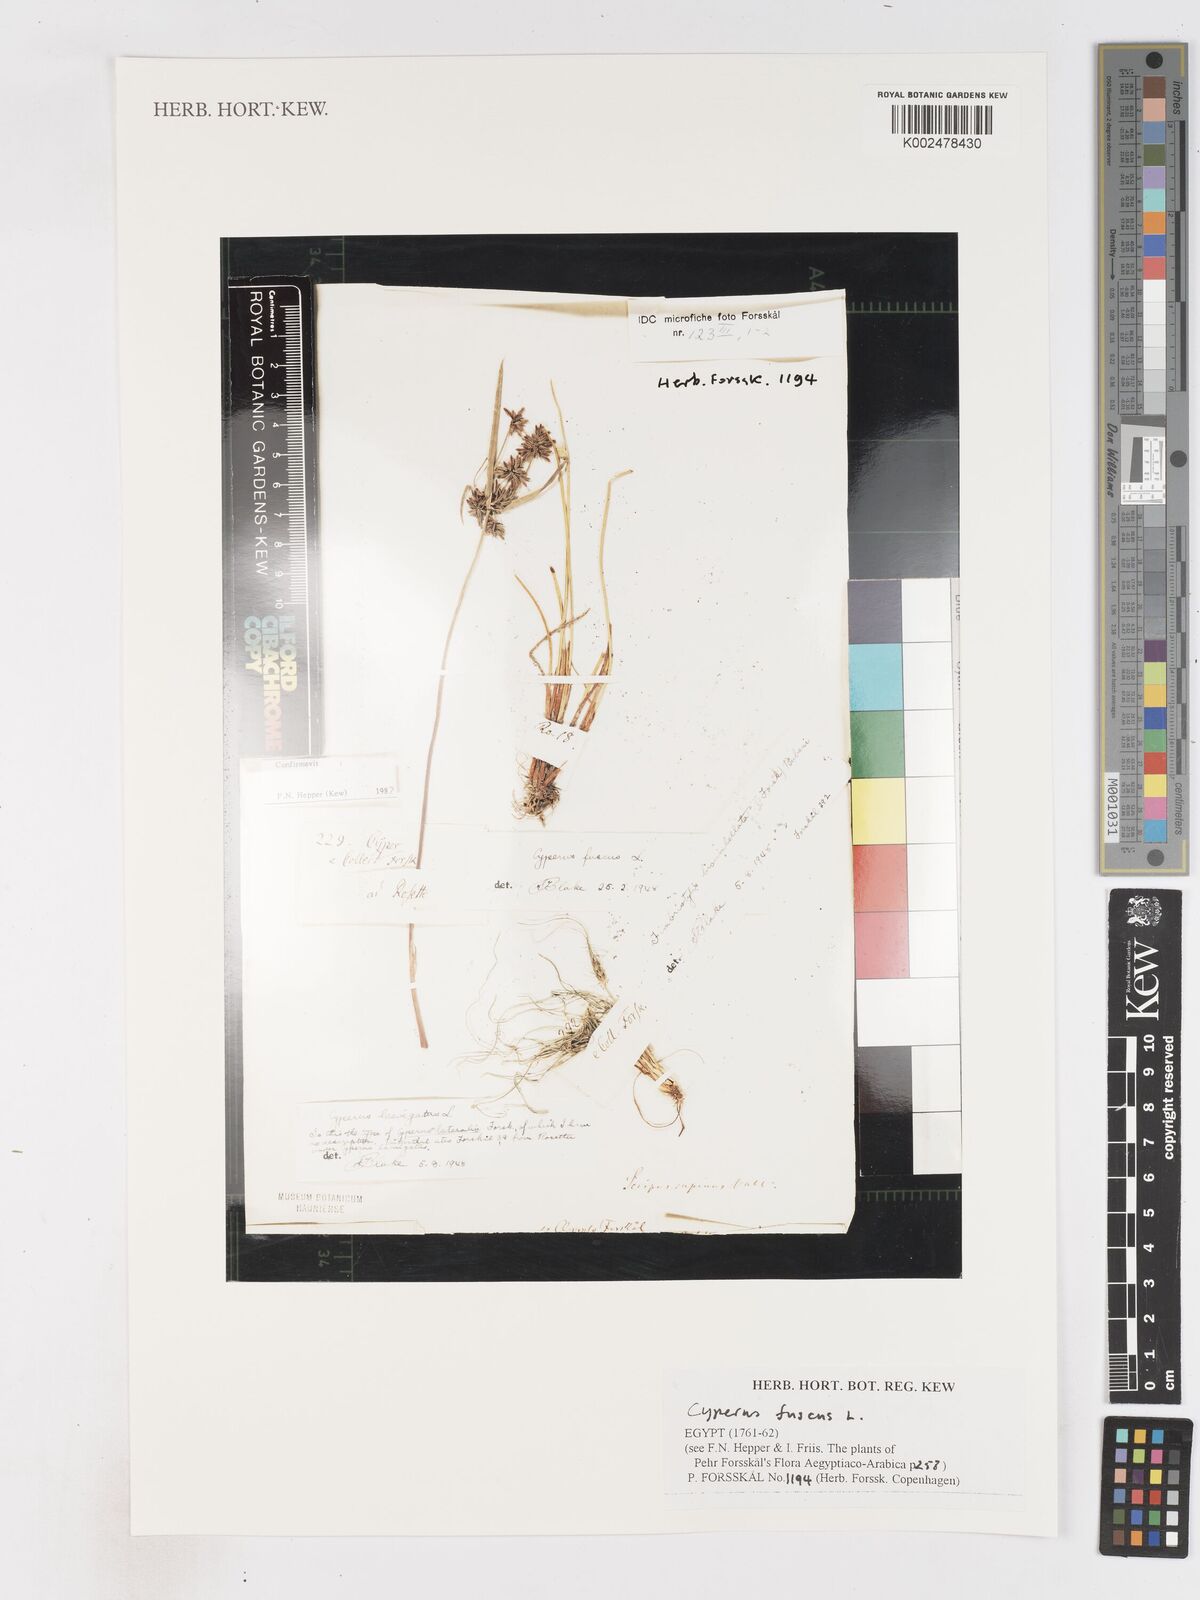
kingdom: Plantae
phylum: Tracheophyta
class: Liliopsida
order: Poales
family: Cyperaceae
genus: Cyperus
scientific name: Cyperus fuscus
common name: Brown galingale
